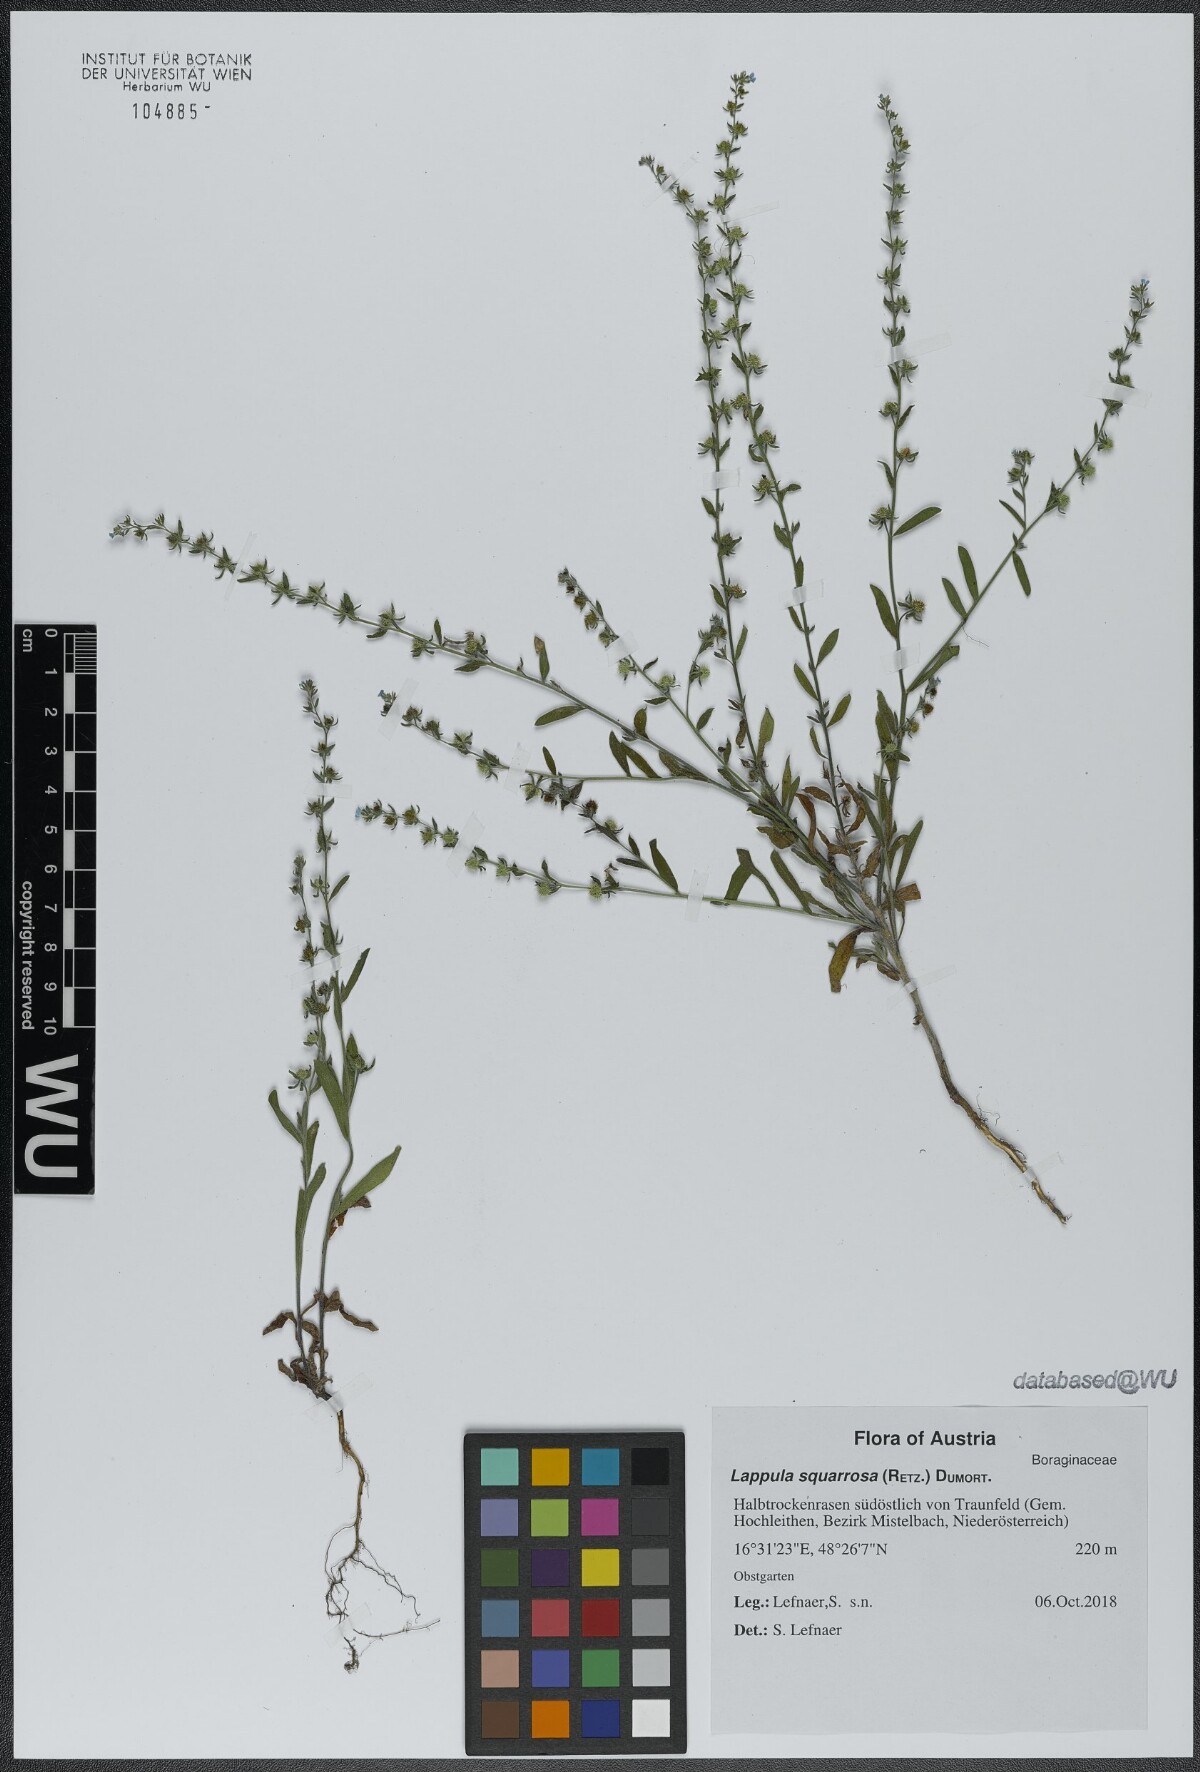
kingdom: Plantae
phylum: Tracheophyta
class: Magnoliopsida
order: Boraginales
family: Boraginaceae
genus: Lappula
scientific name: Lappula squarrosa
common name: European stickseed
